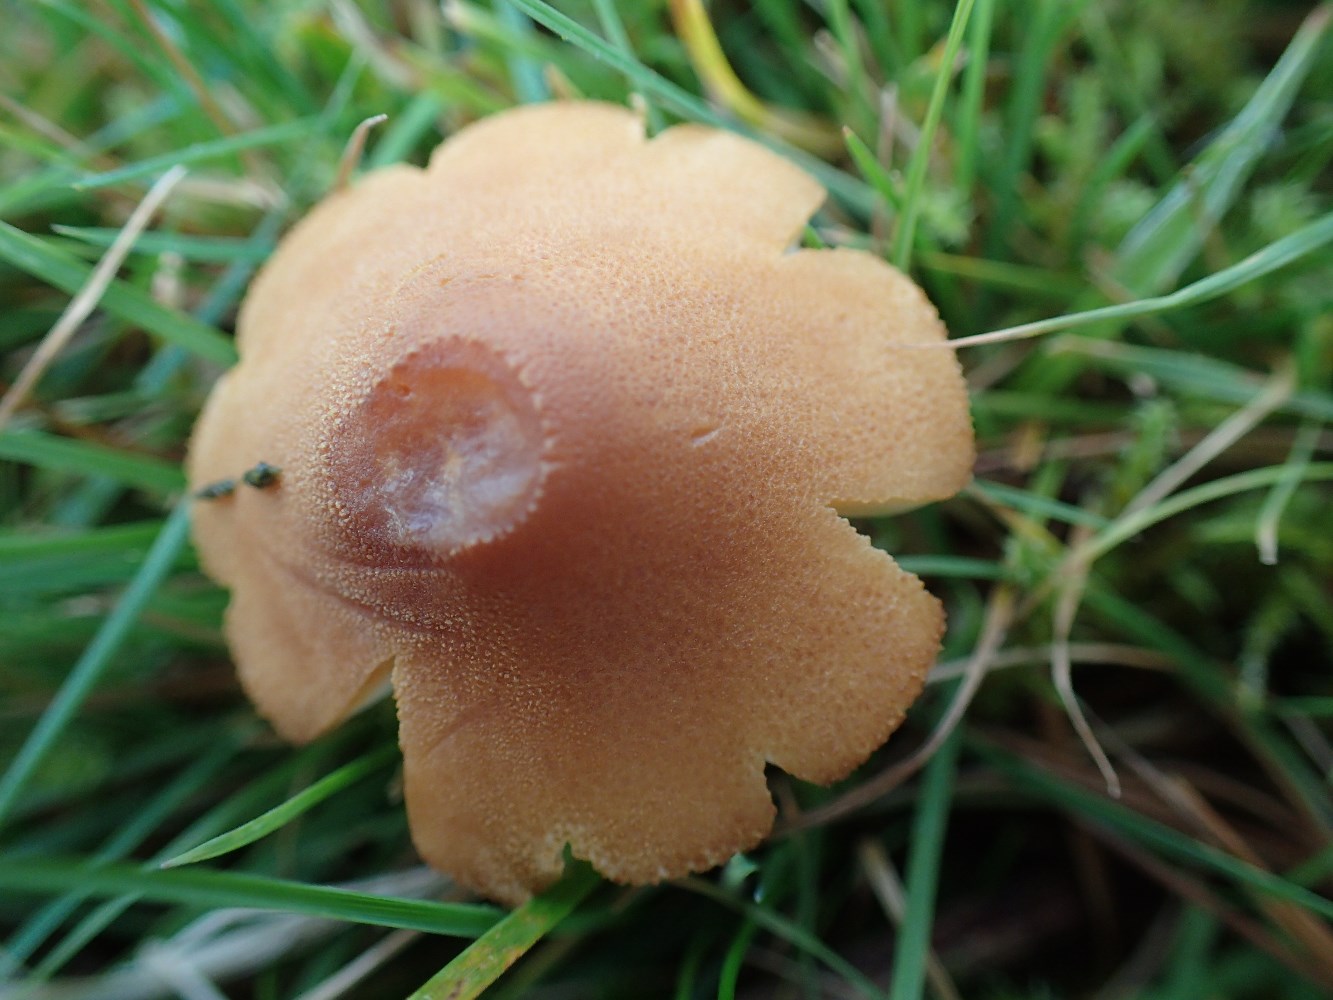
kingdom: Fungi
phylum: Basidiomycota
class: Agaricomycetes
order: Agaricales
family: Tricholomataceae
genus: Cystoderma
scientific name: Cystoderma amianthinum
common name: okkergul grynhat
